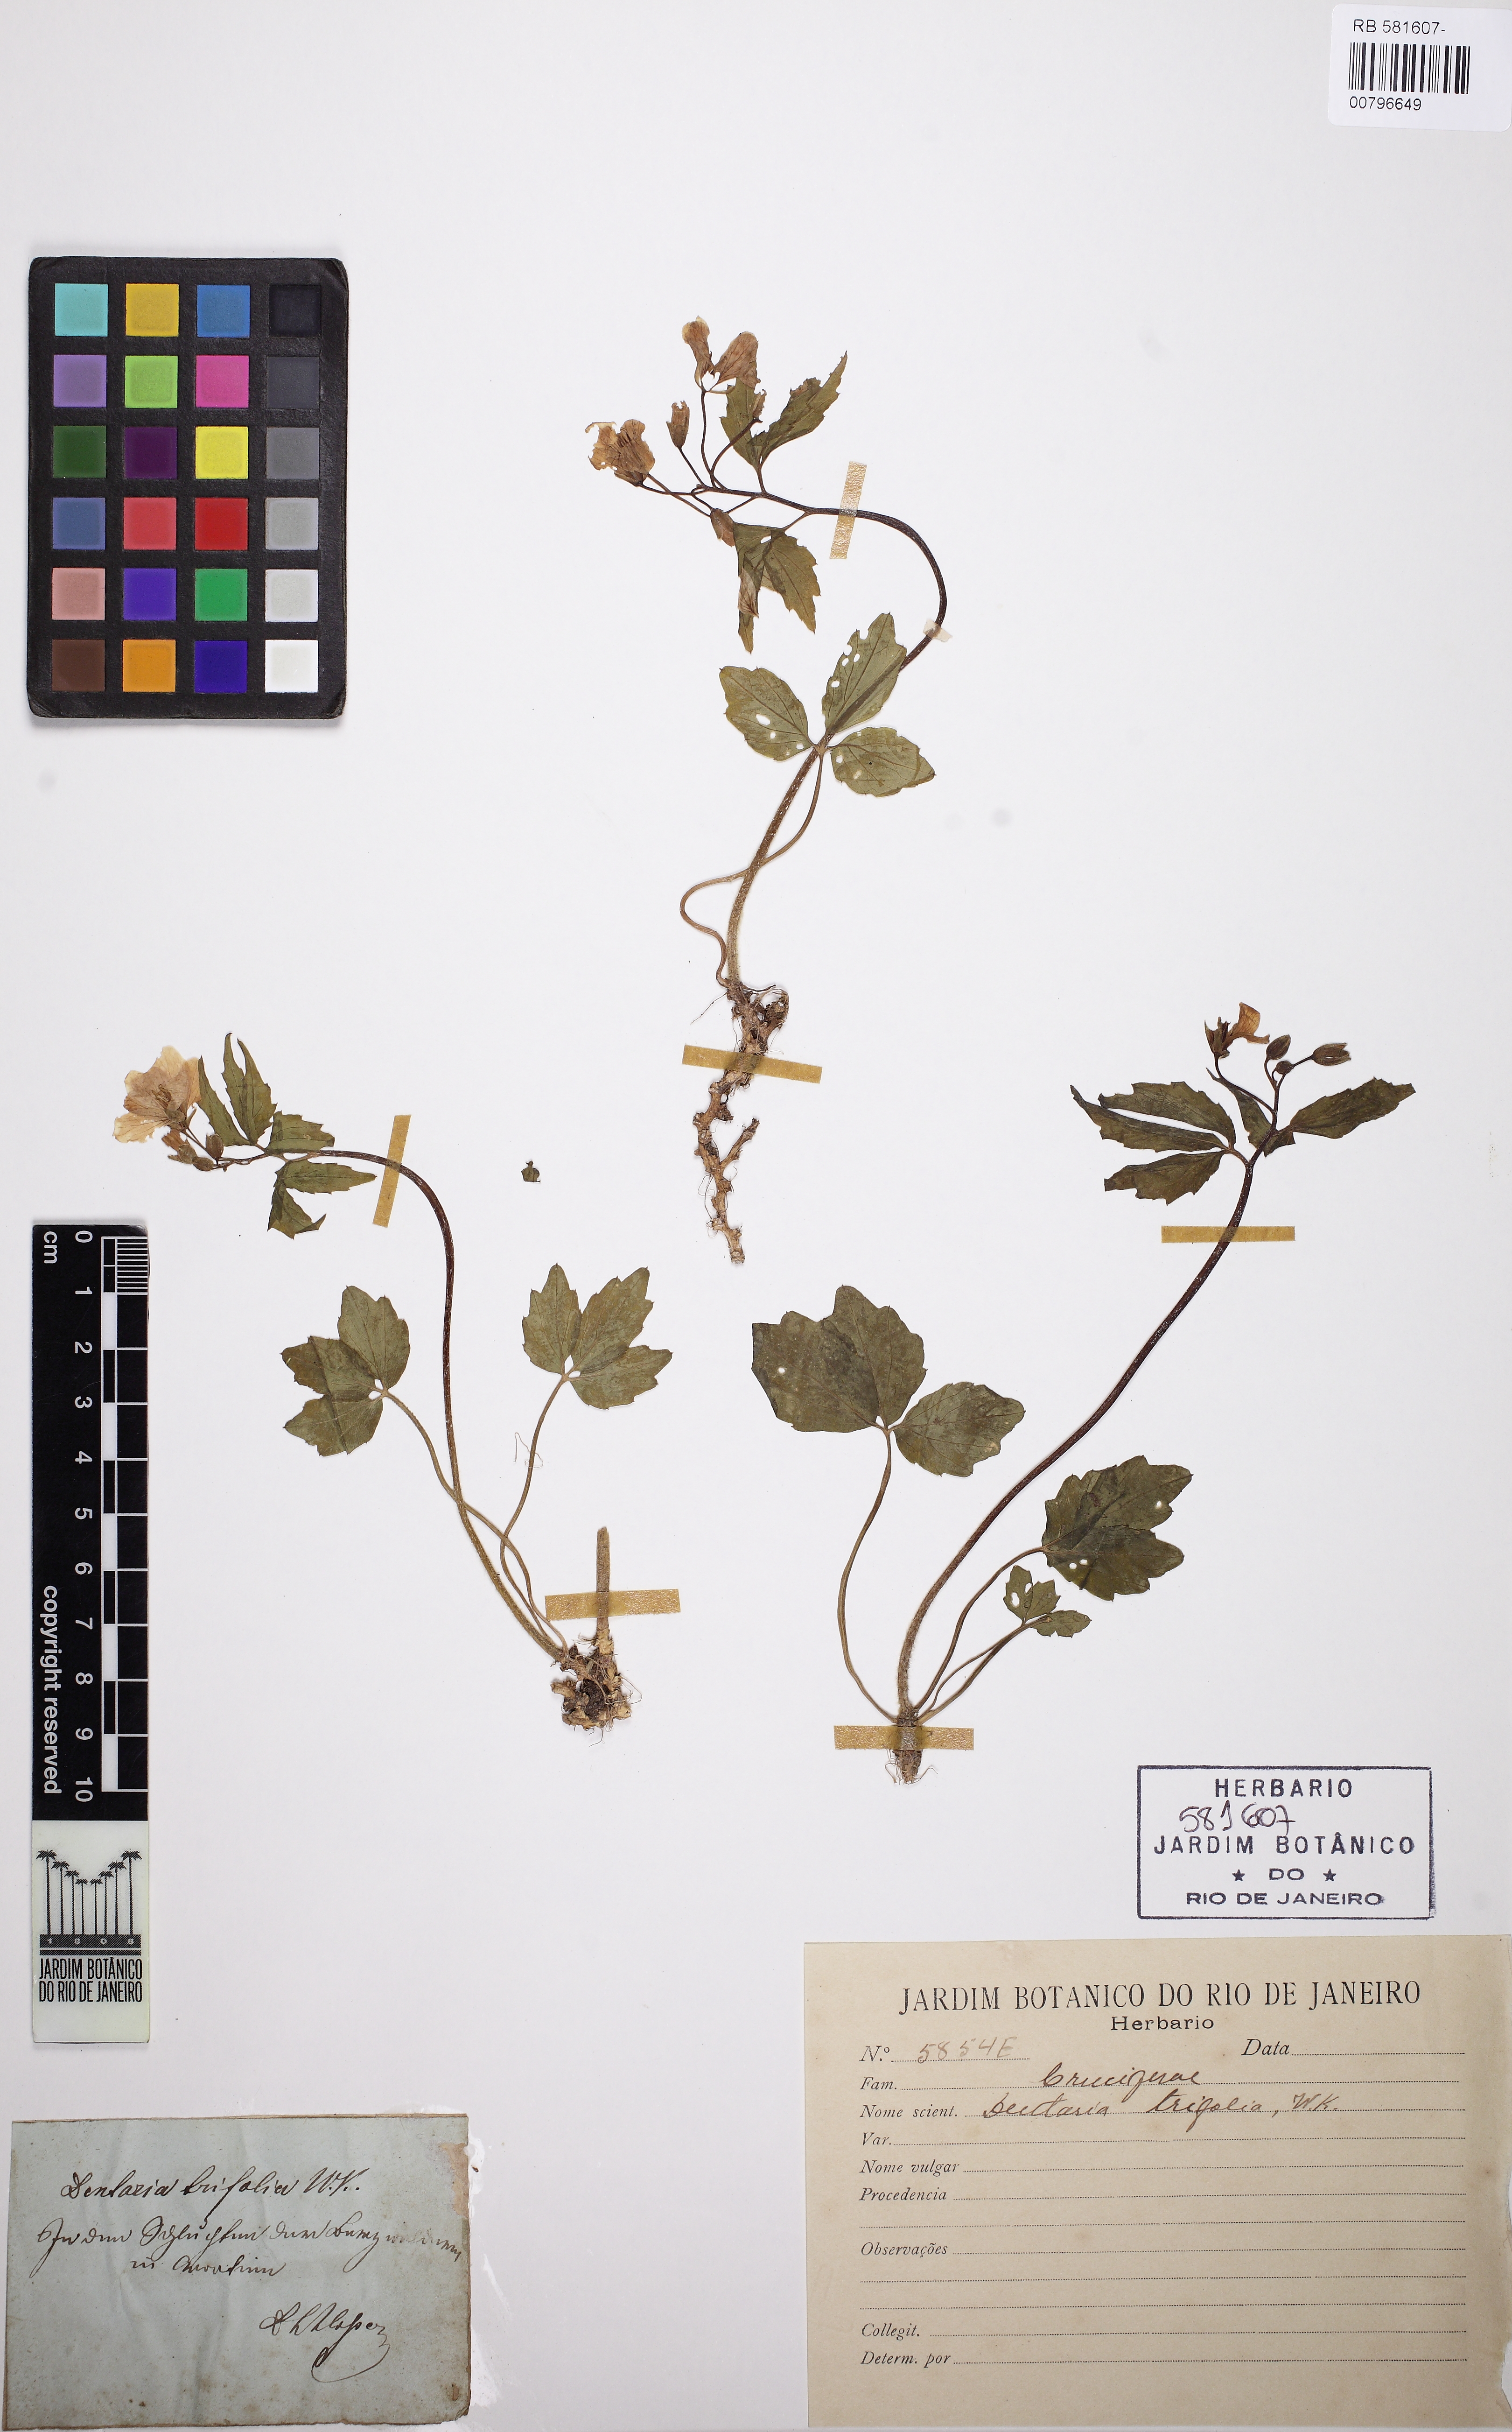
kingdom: Plantae
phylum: Tracheophyta
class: Magnoliopsida
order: Brassicales
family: Brassicaceae
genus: Cardamine
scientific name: Cardamine waldsteinii
